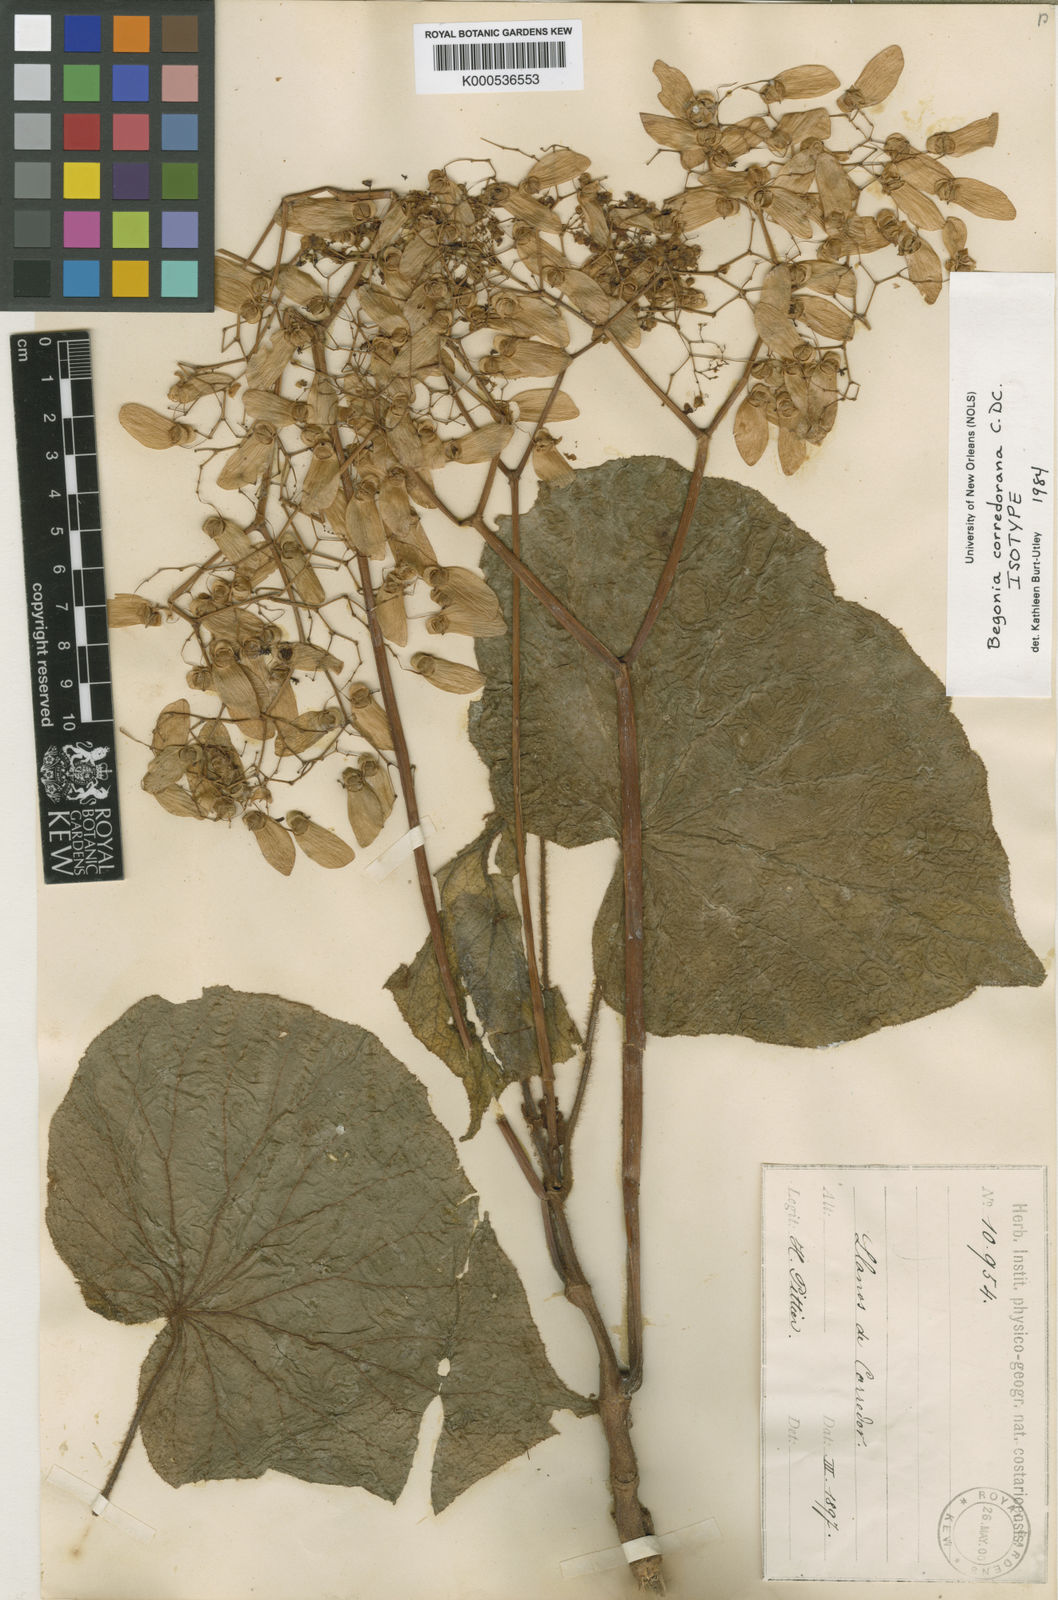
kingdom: Plantae
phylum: Tracheophyta
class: Magnoliopsida
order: Cucurbitales
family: Begoniaceae
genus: Begonia
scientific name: Begonia corredorana
